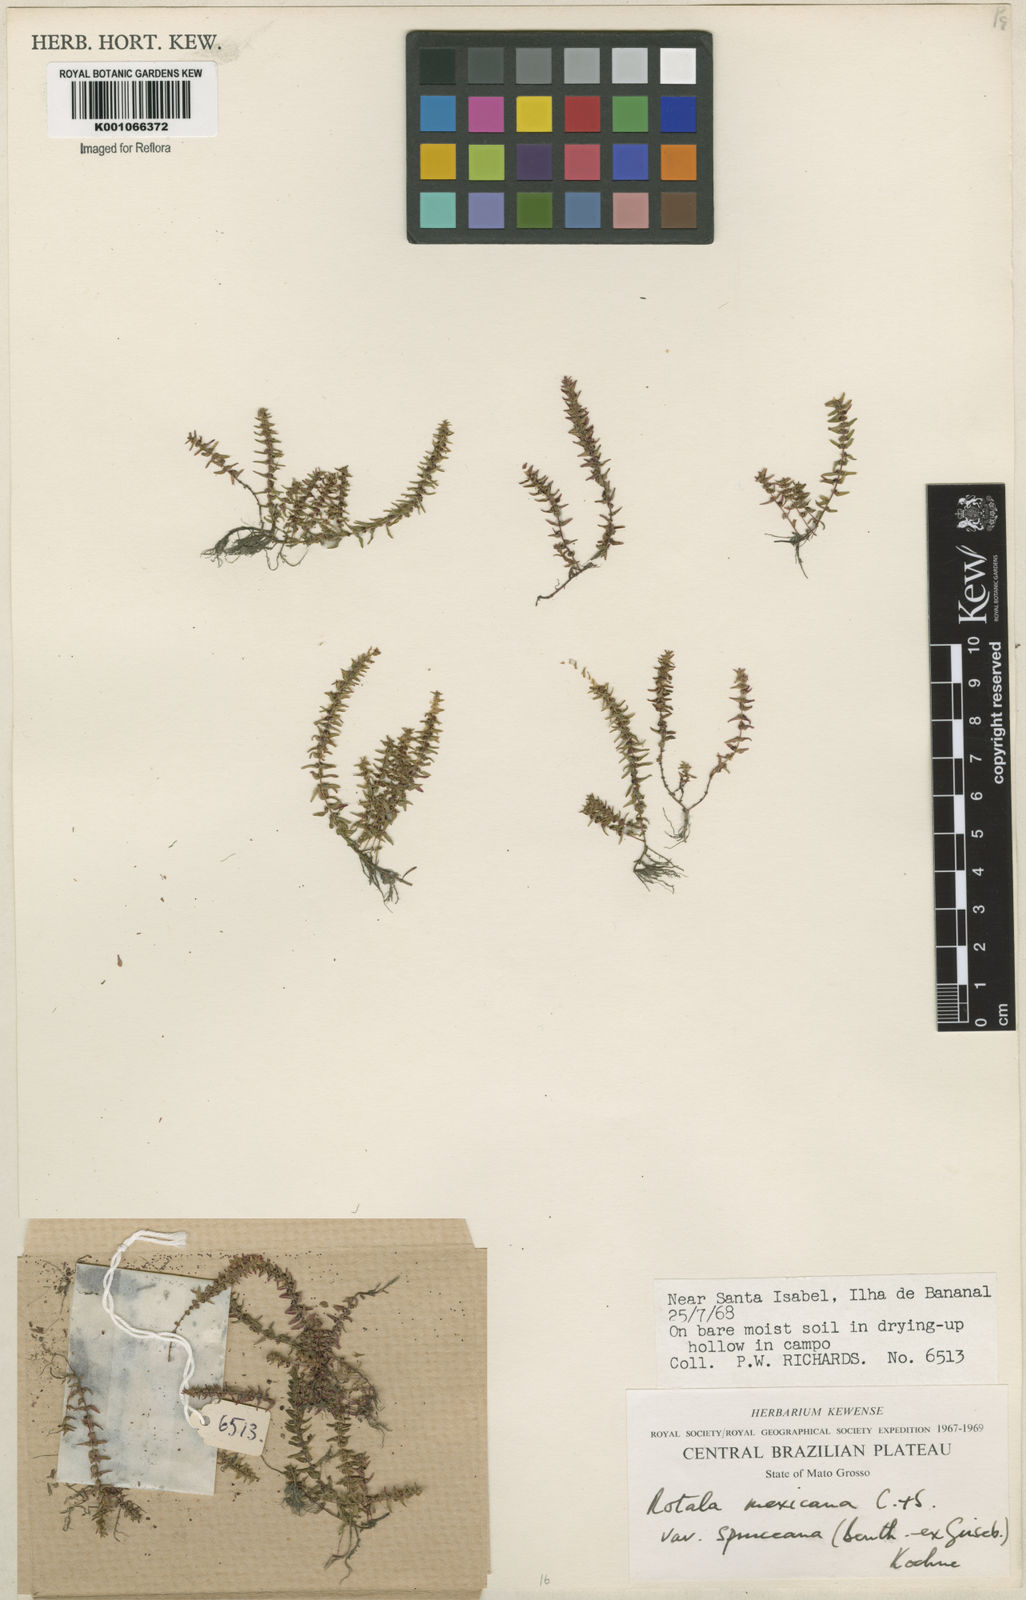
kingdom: Plantae
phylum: Tracheophyta
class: Magnoliopsida
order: Myrtales
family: Lythraceae
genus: Rotala
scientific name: Rotala mexicana
